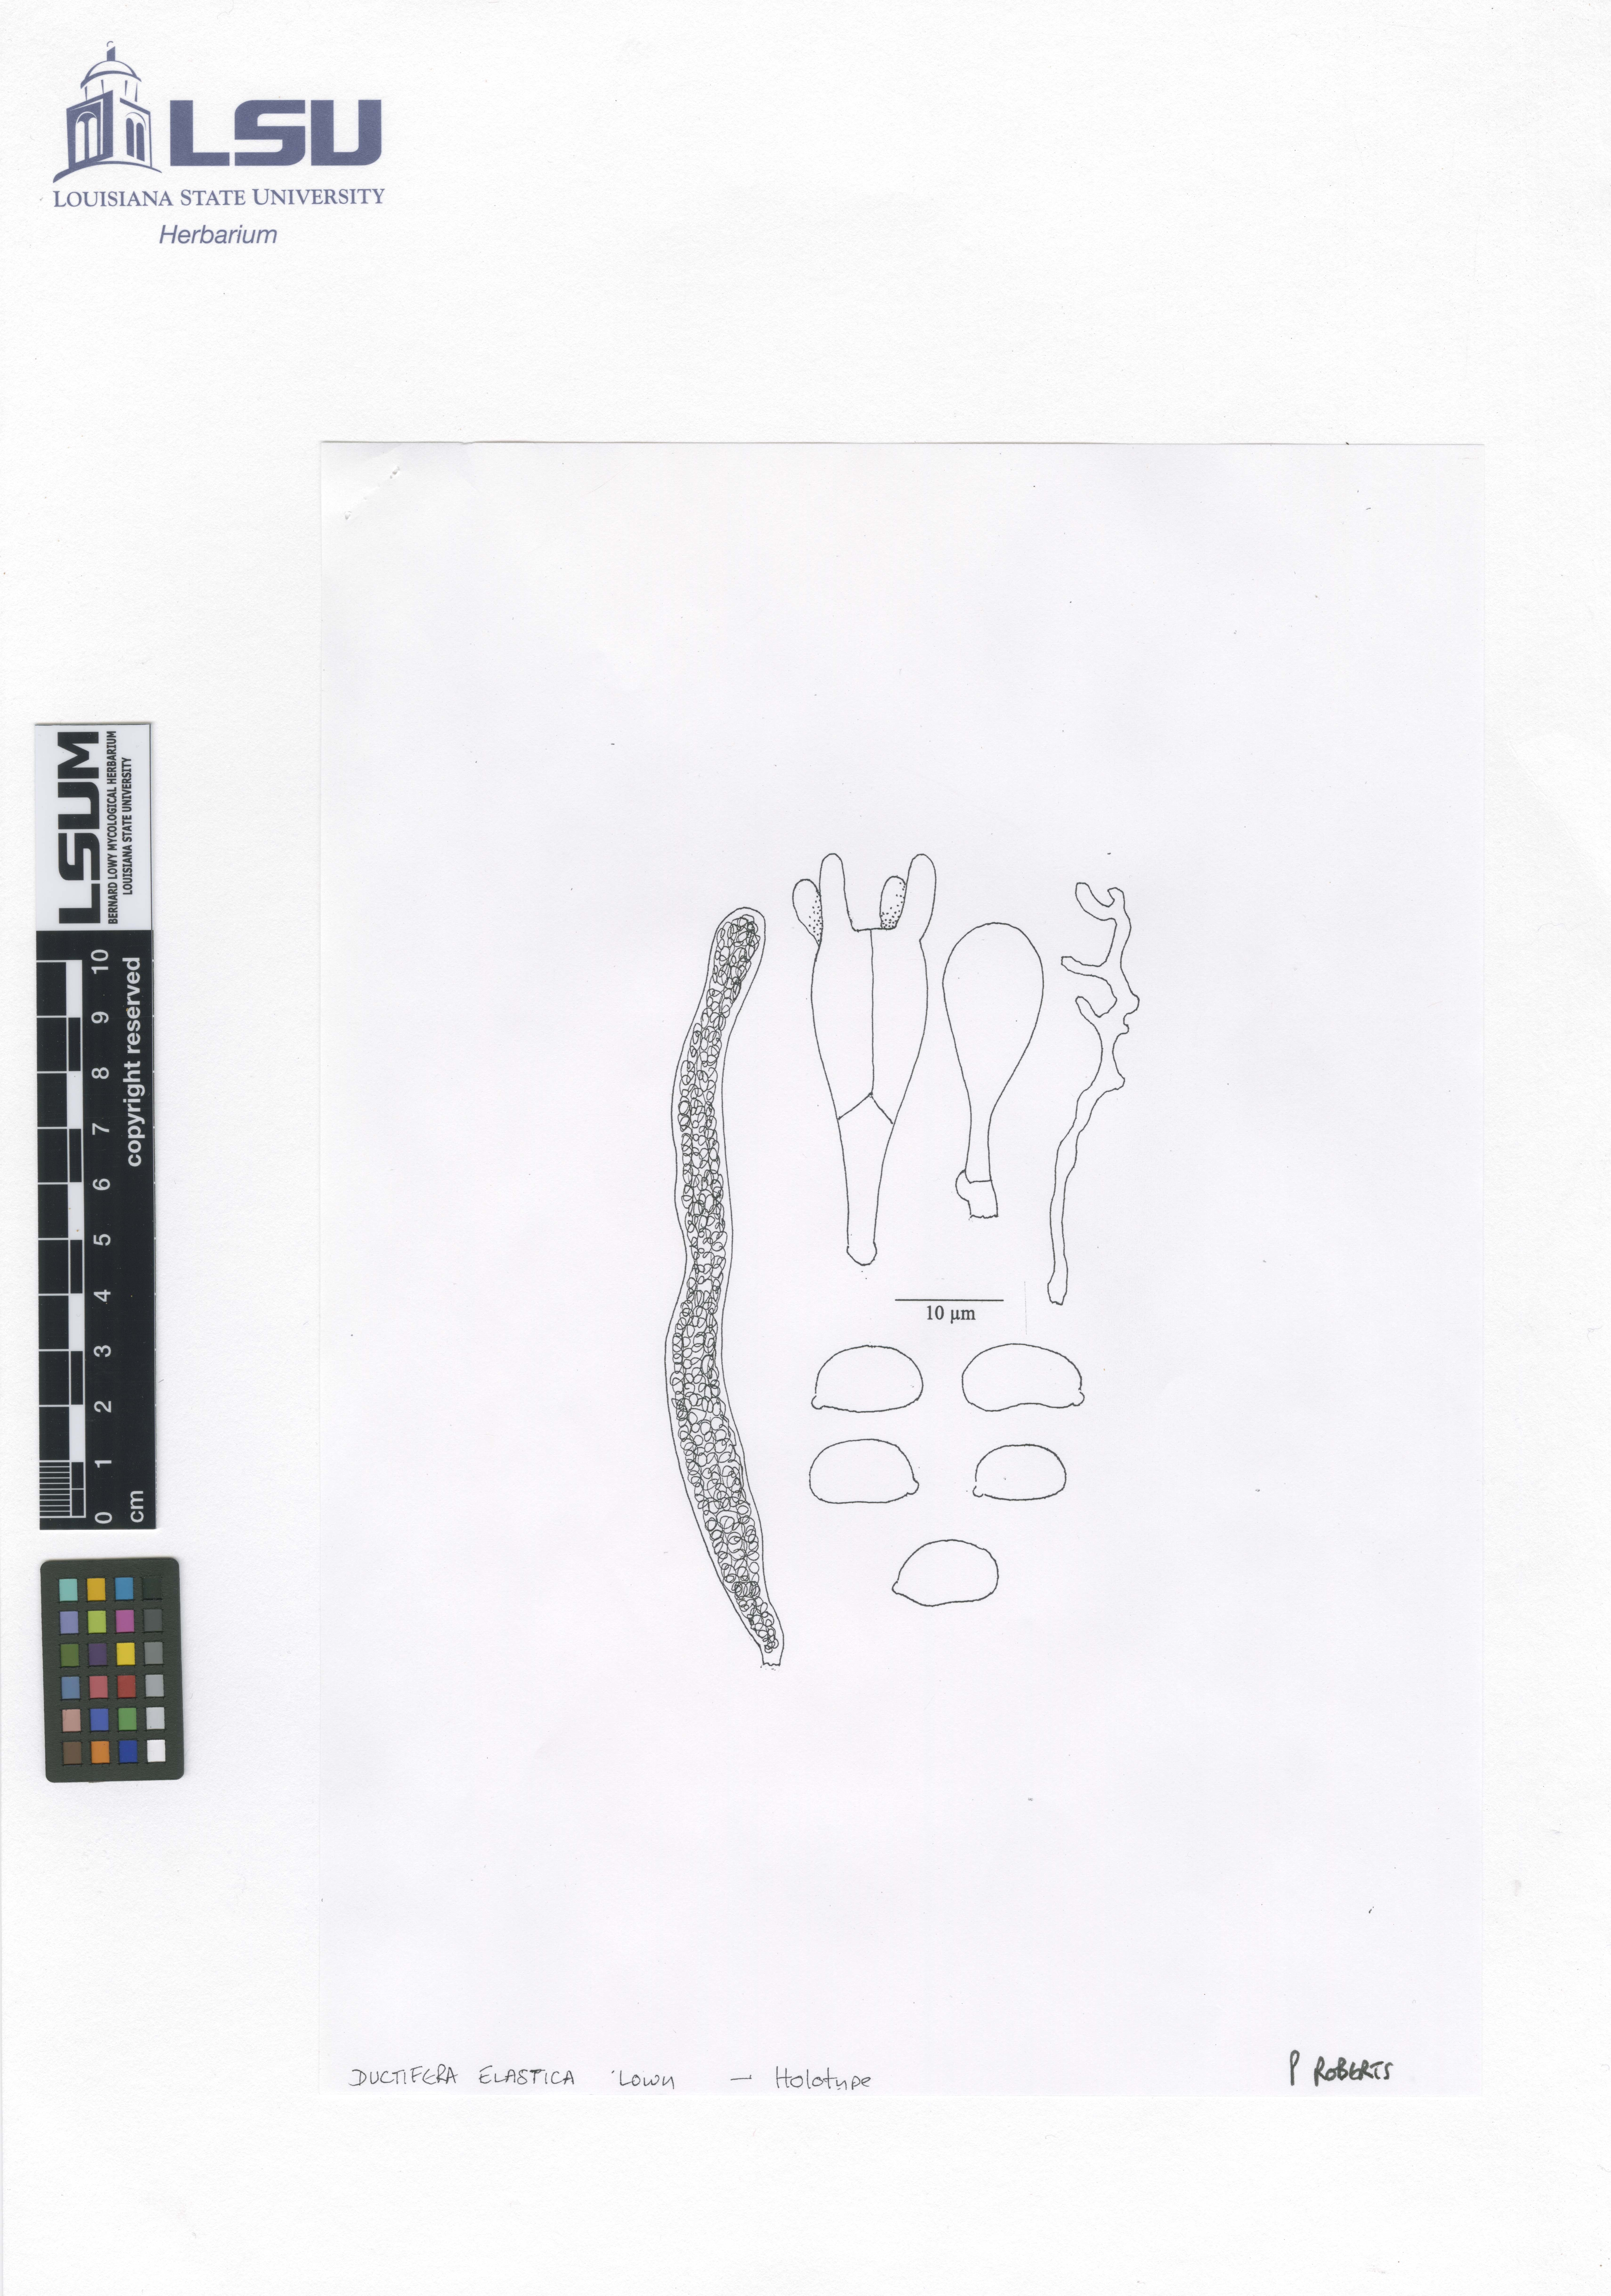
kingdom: Fungi
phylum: Basidiomycota
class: Agaricomycetes
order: Auriculariales
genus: Ductifera
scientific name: Ductifera elastica
